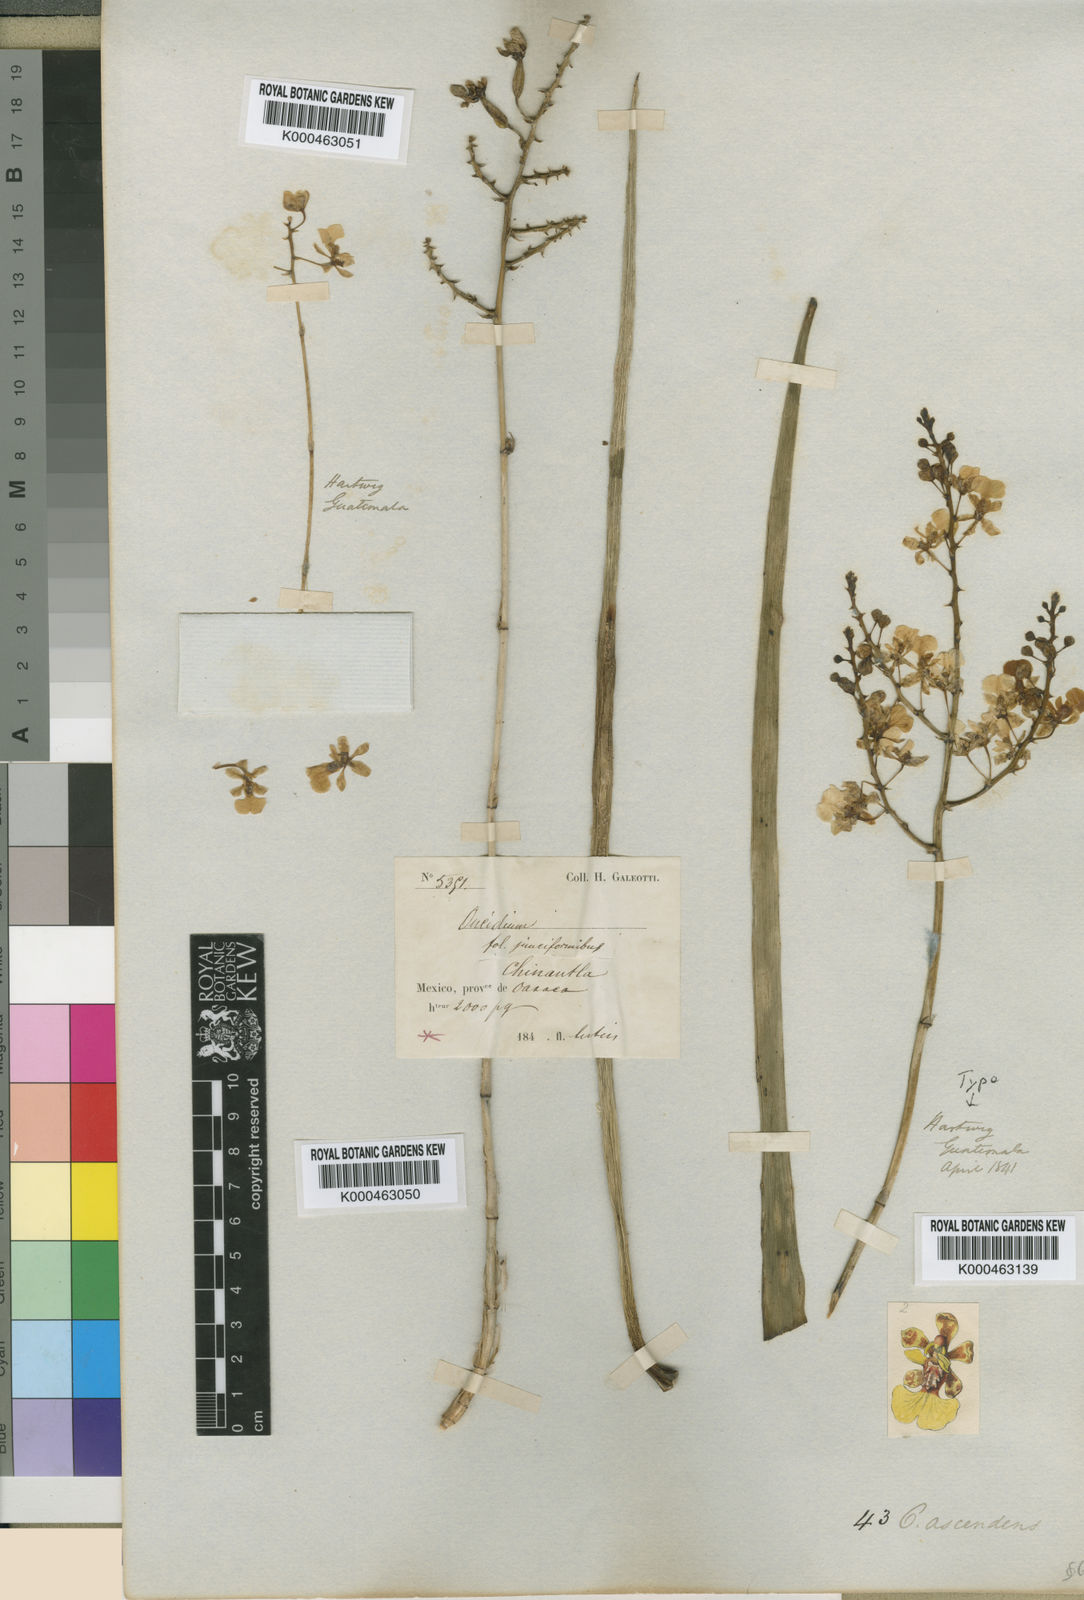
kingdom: Plantae
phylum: Tracheophyta
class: Liliopsida
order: Asparagales
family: Orchidaceae
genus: Trichocentrum
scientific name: Trichocentrum ascendens
